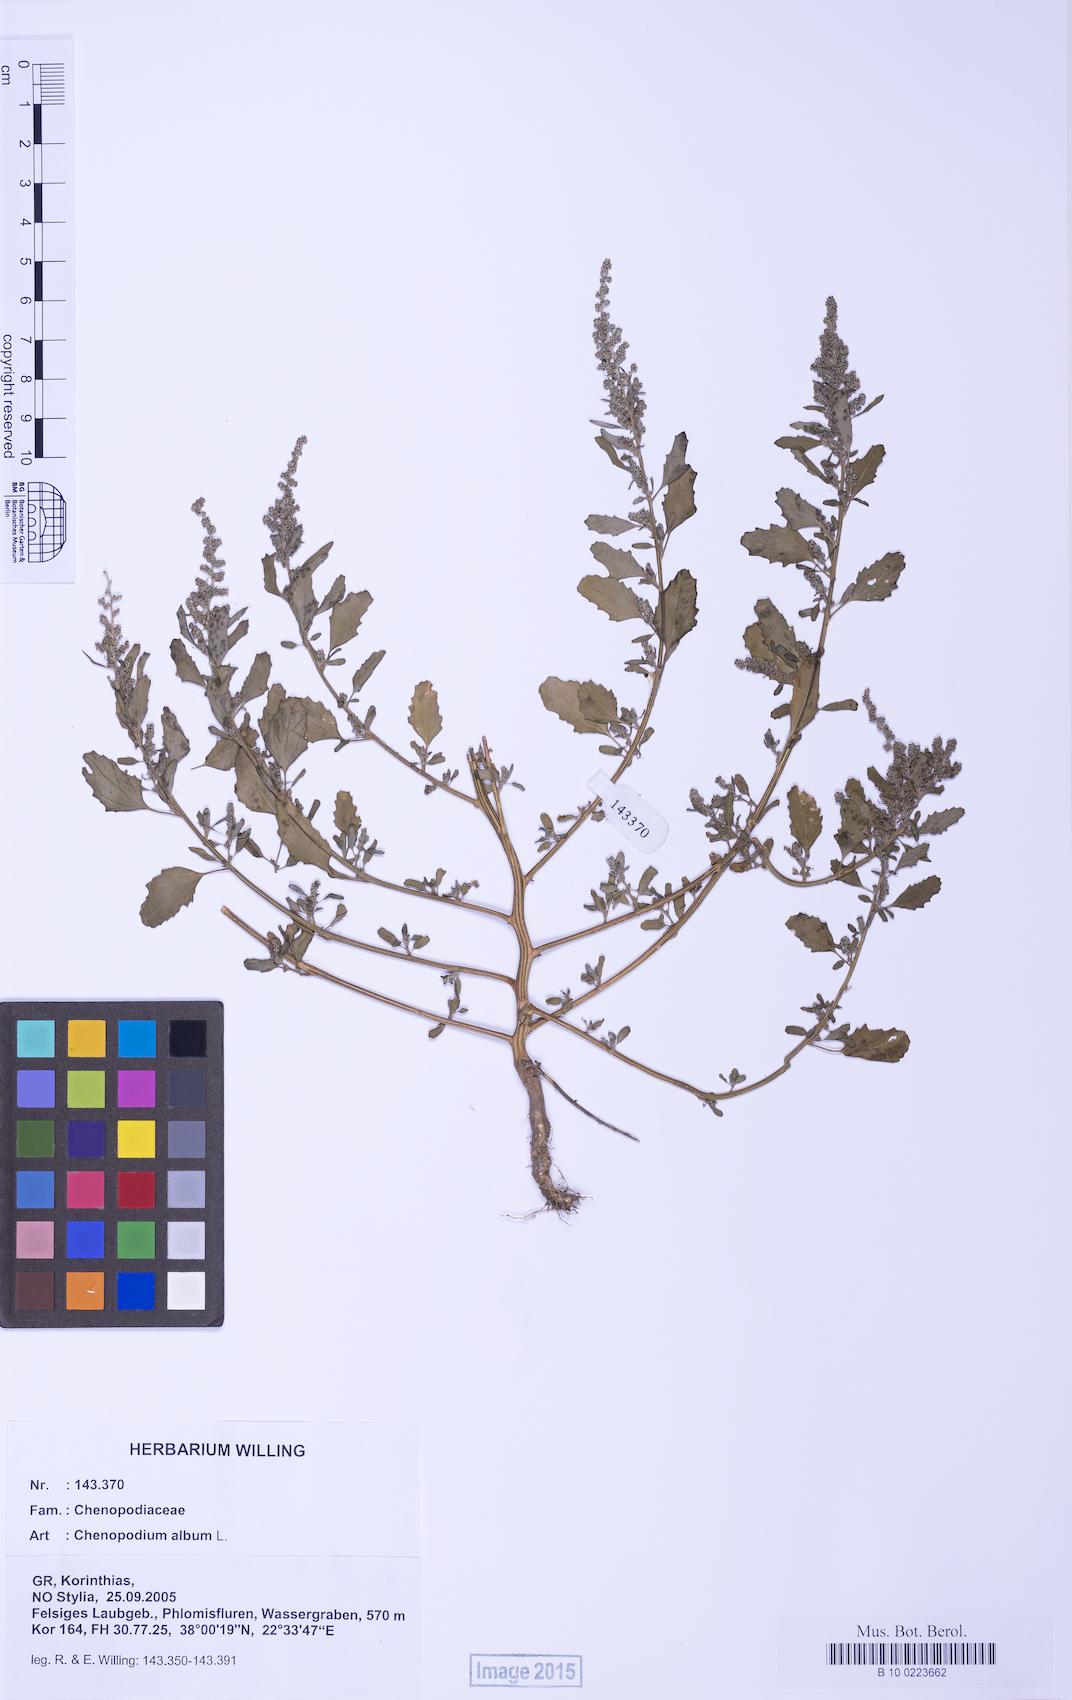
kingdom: Plantae
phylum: Tracheophyta
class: Magnoliopsida
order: Caryophyllales
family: Amaranthaceae
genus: Chenopodium
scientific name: Chenopodium album
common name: Fat-hen
